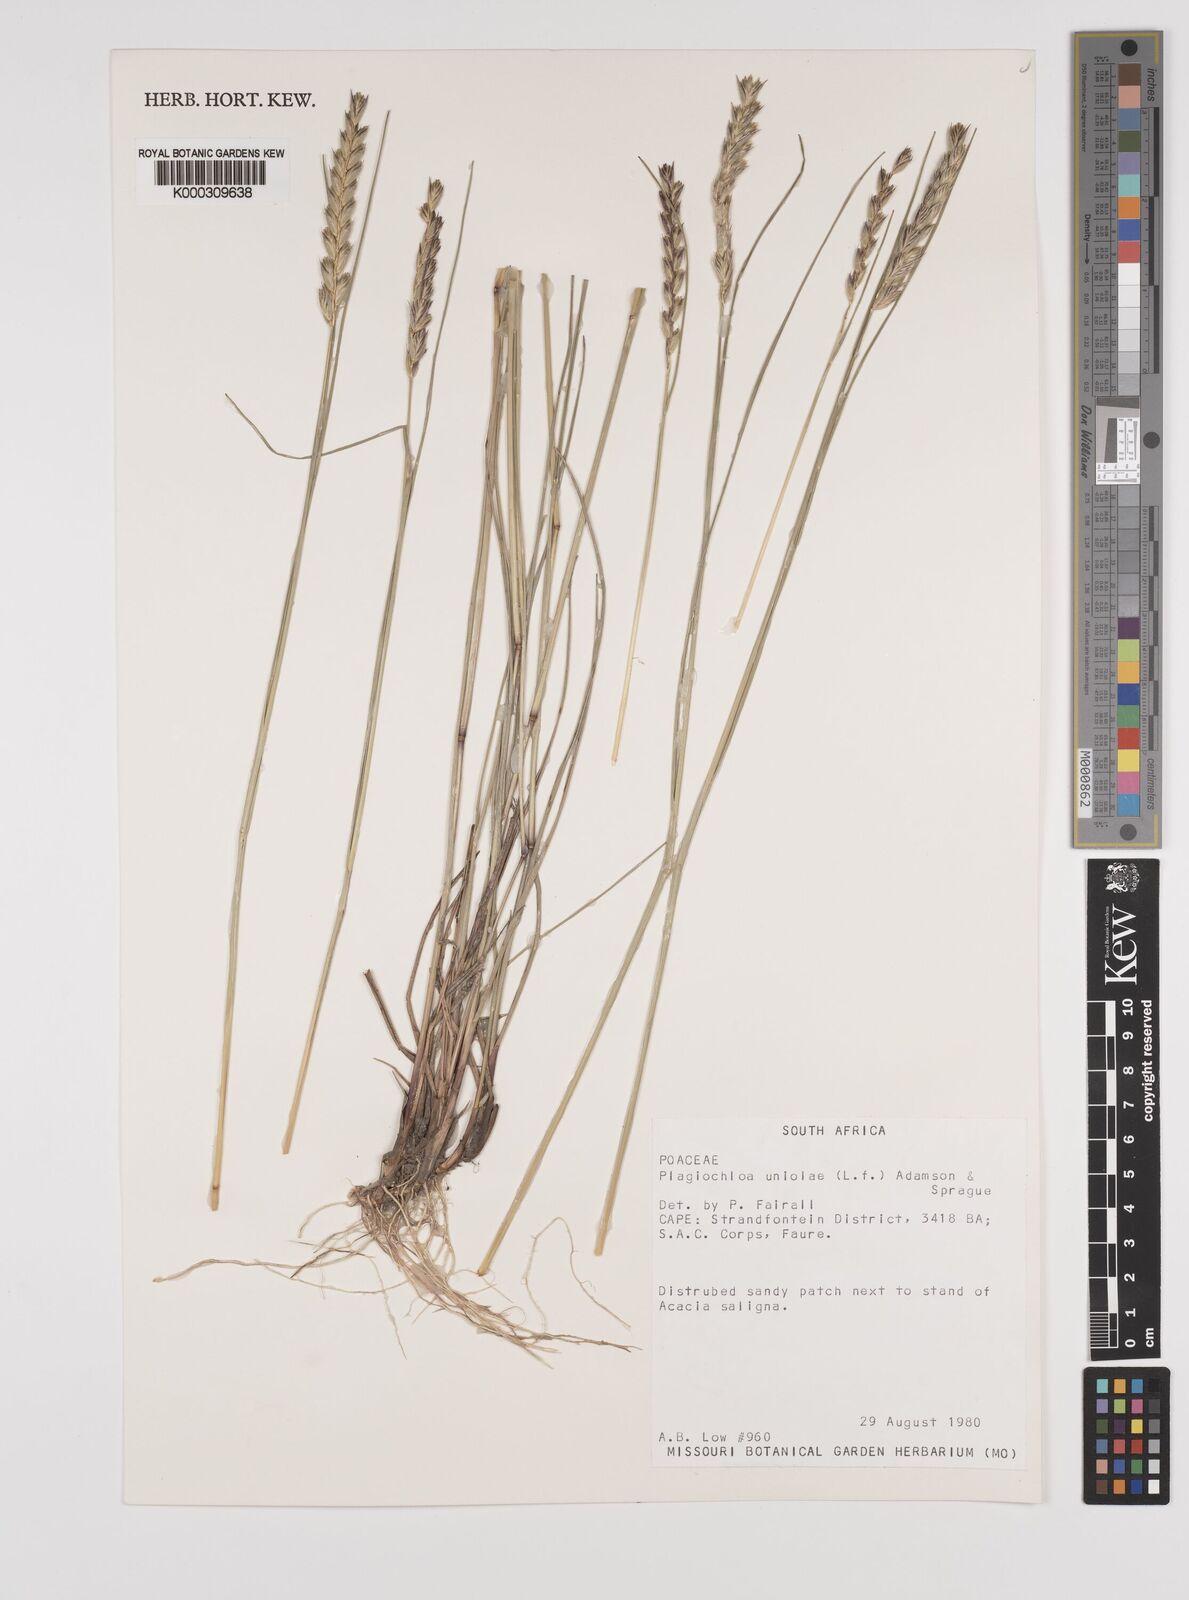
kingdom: Plantae
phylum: Tracheophyta
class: Liliopsida
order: Poales
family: Poaceae
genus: Tribolium
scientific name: Tribolium uniolae
